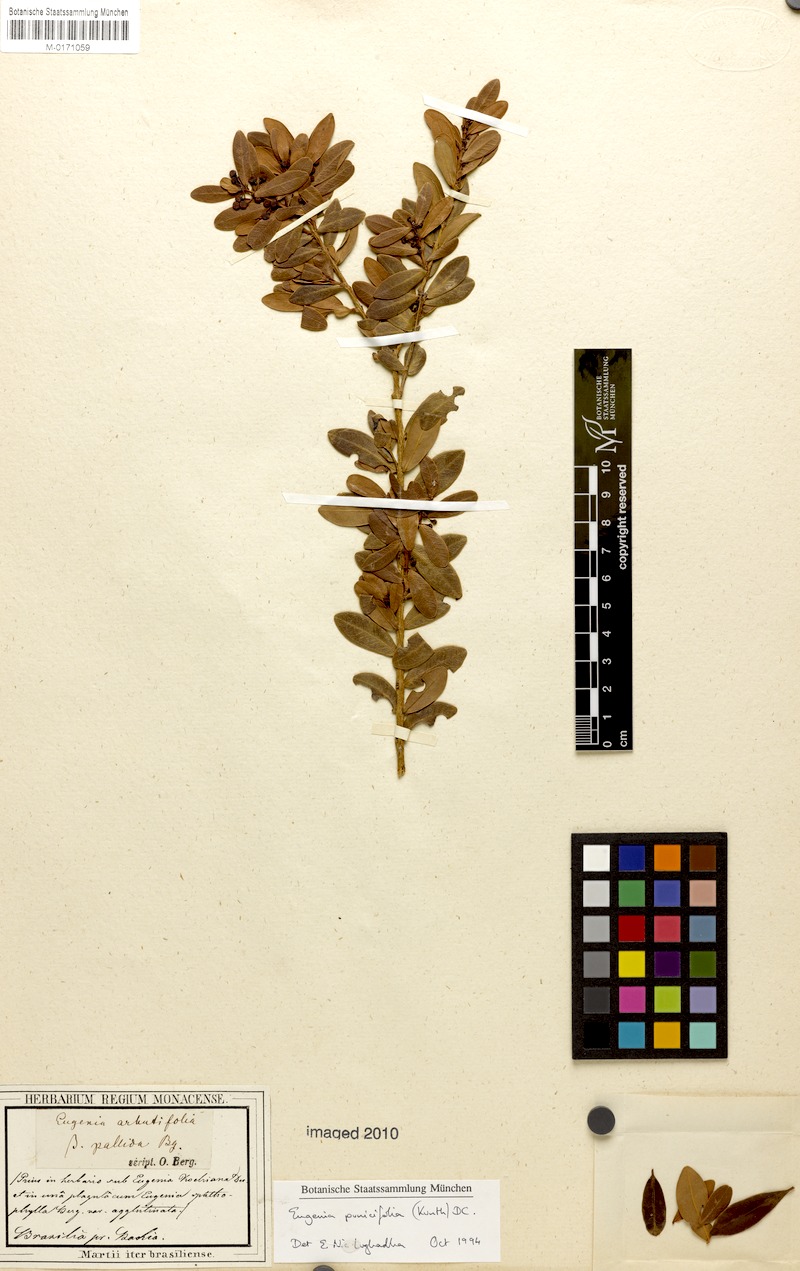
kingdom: Plantae
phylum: Tracheophyta
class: Magnoliopsida
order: Myrtales
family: Myrtaceae
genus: Eugenia
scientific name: Eugenia punicifolia
